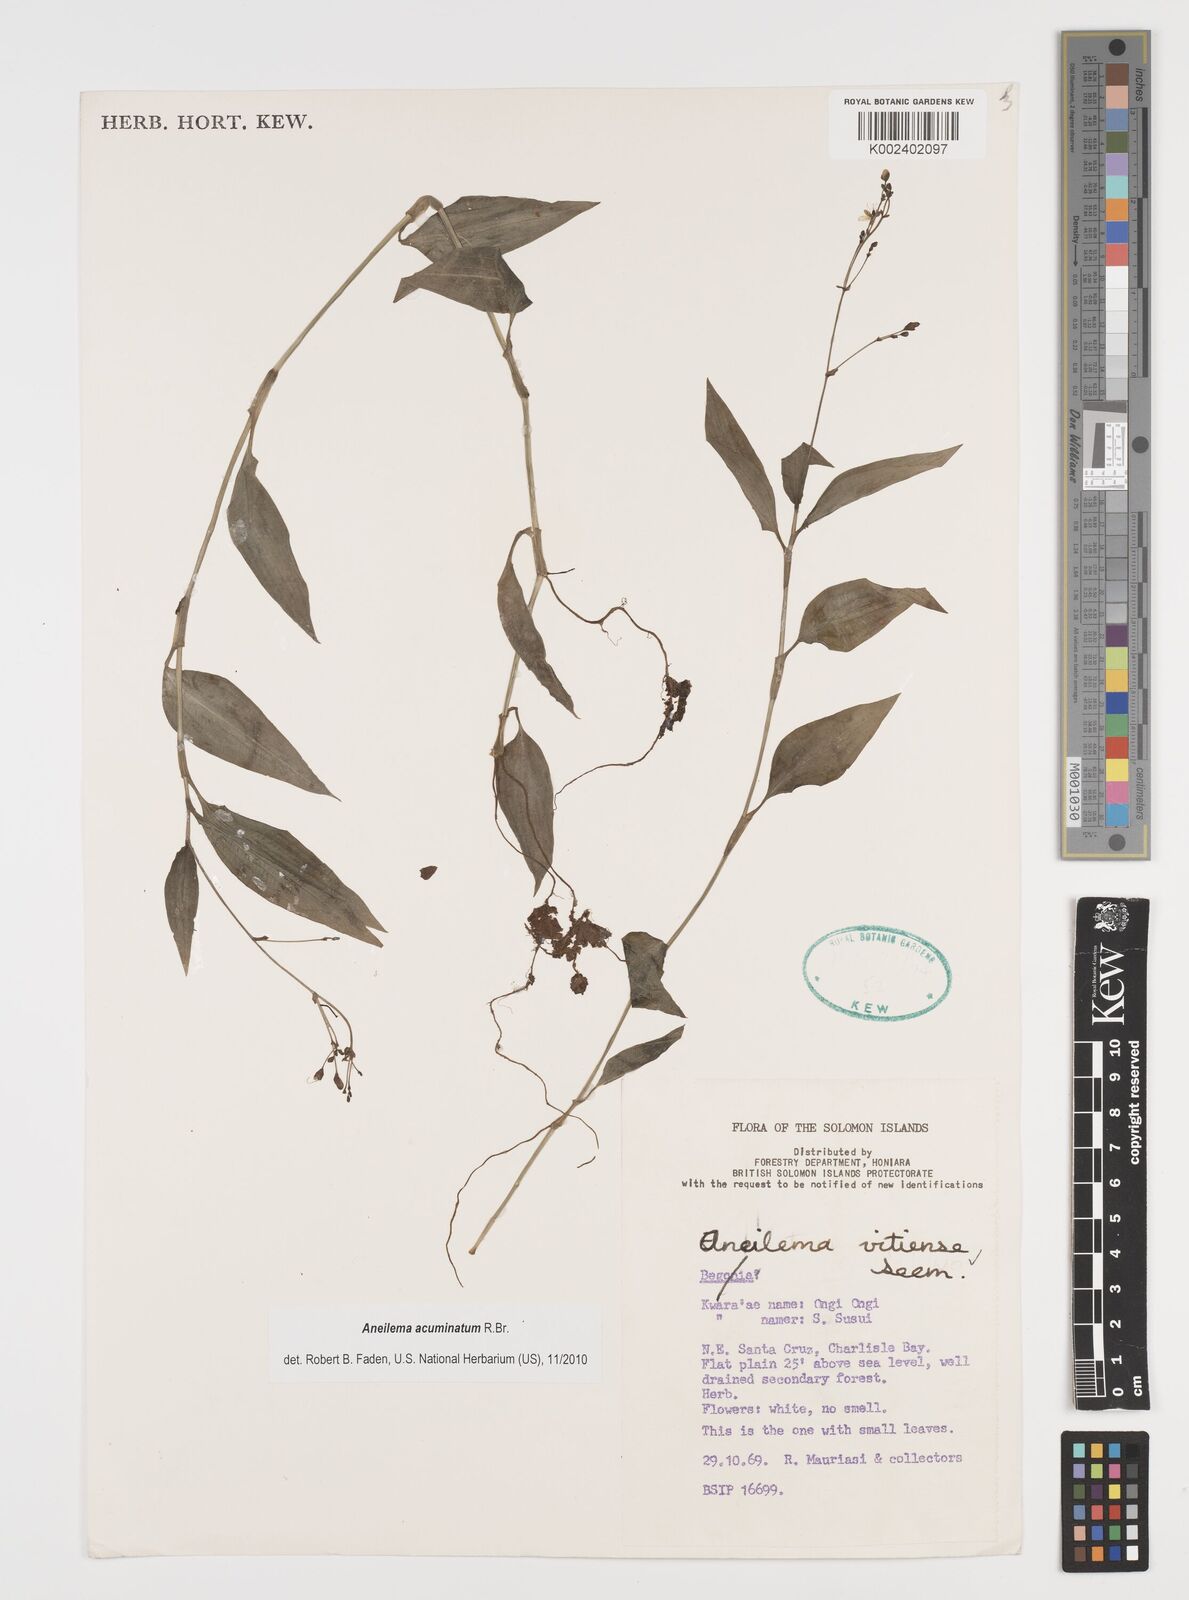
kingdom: Plantae
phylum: Tracheophyta
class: Liliopsida
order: Commelinales
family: Commelinaceae
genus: Aneilema
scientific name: Aneilema acuminatum
